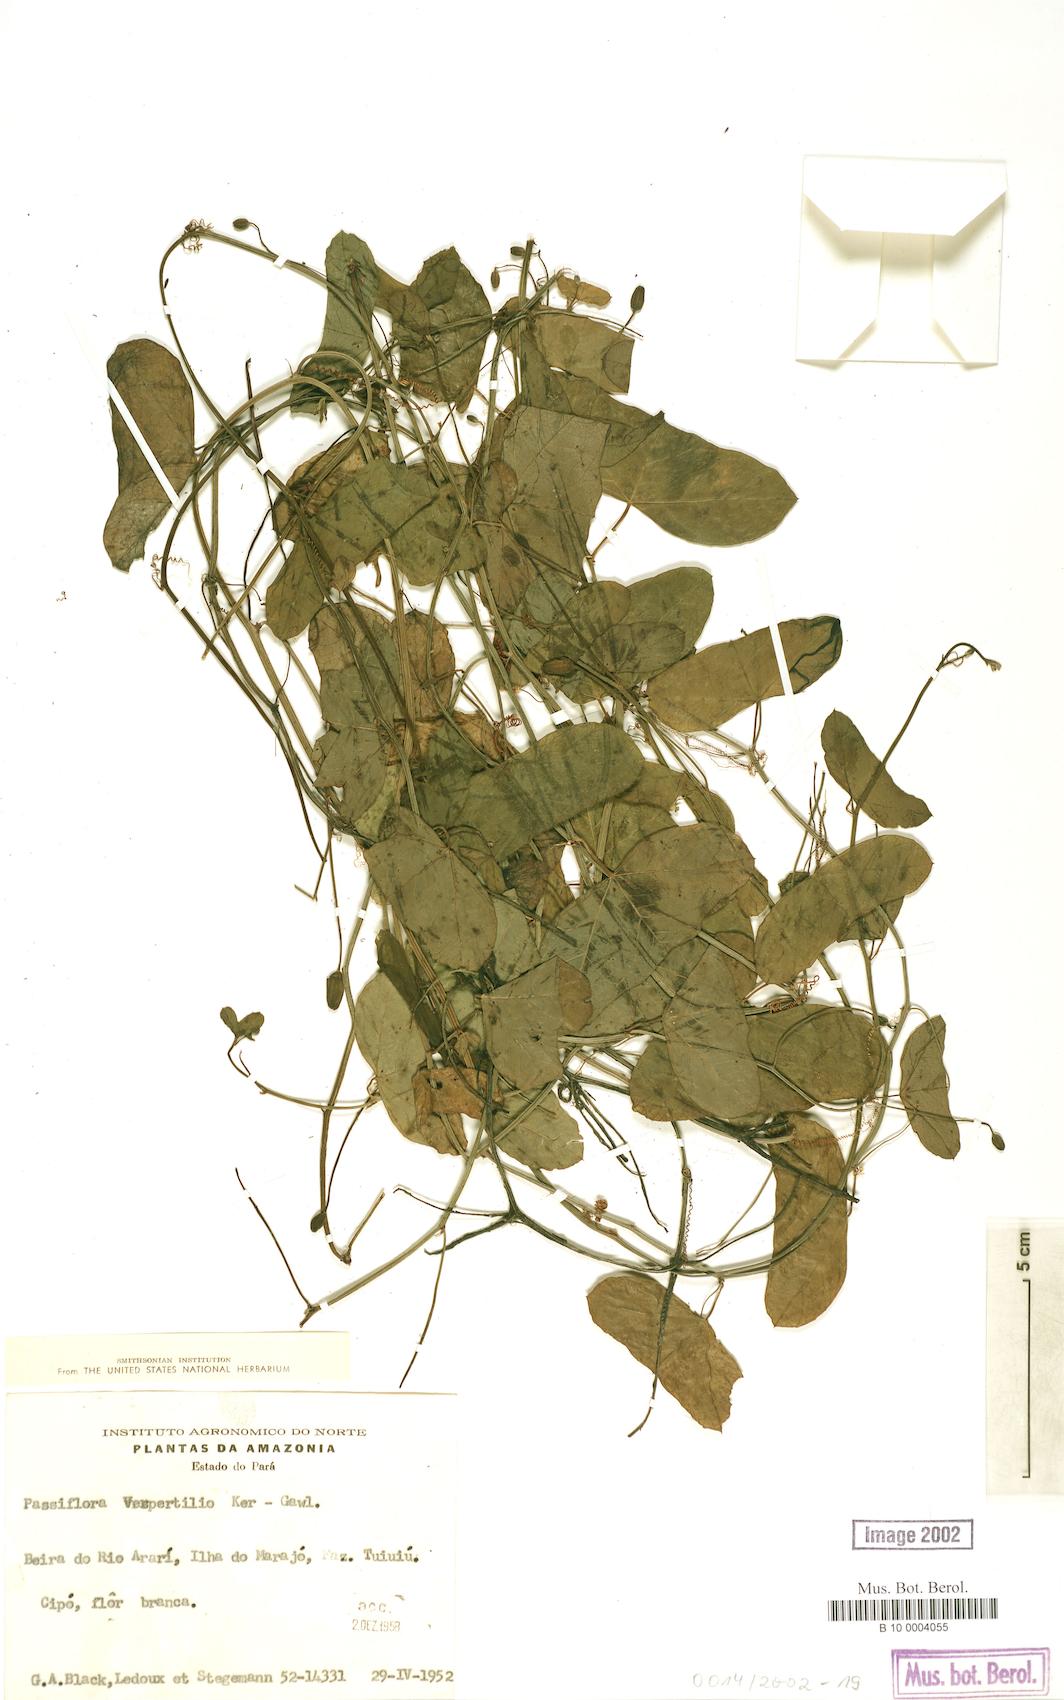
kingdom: Plantae
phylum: Tracheophyta
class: Magnoliopsida
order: Malpighiales
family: Passifloraceae
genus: Passiflora
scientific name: Passiflora misera
